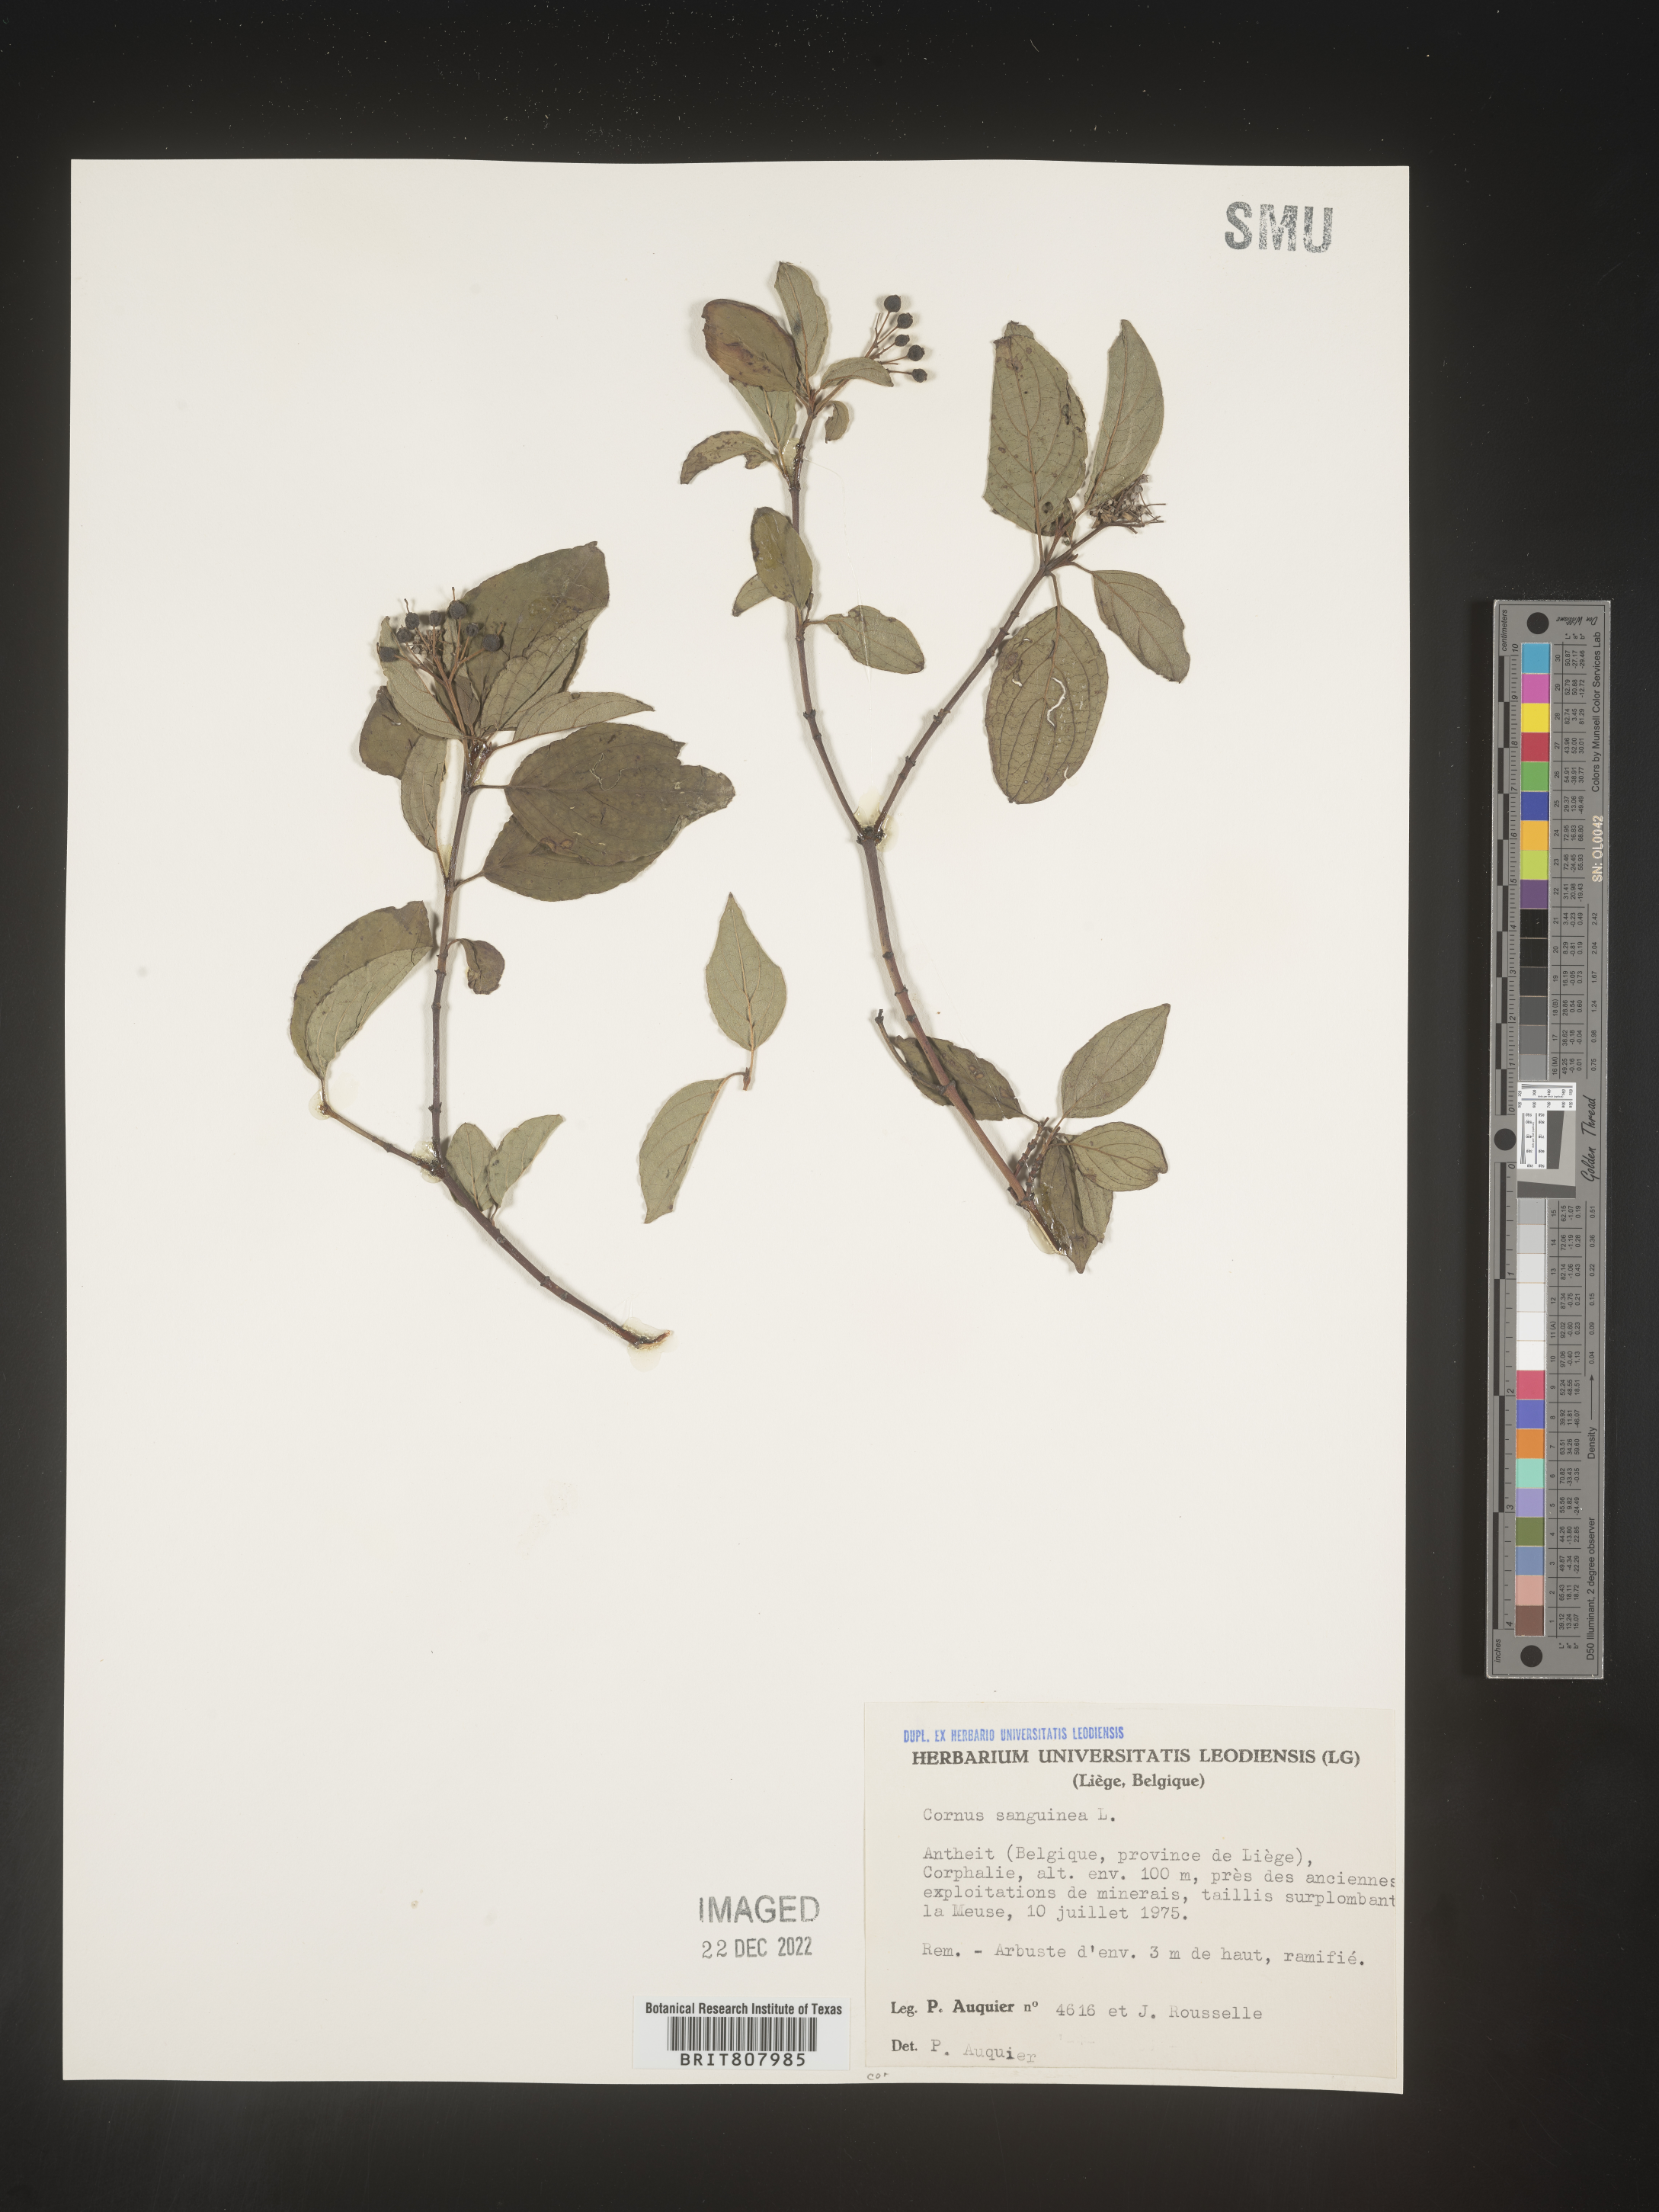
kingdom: Plantae
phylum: Tracheophyta
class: Magnoliopsida
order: Cornales
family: Cornaceae
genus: Cornus
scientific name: Cornus
